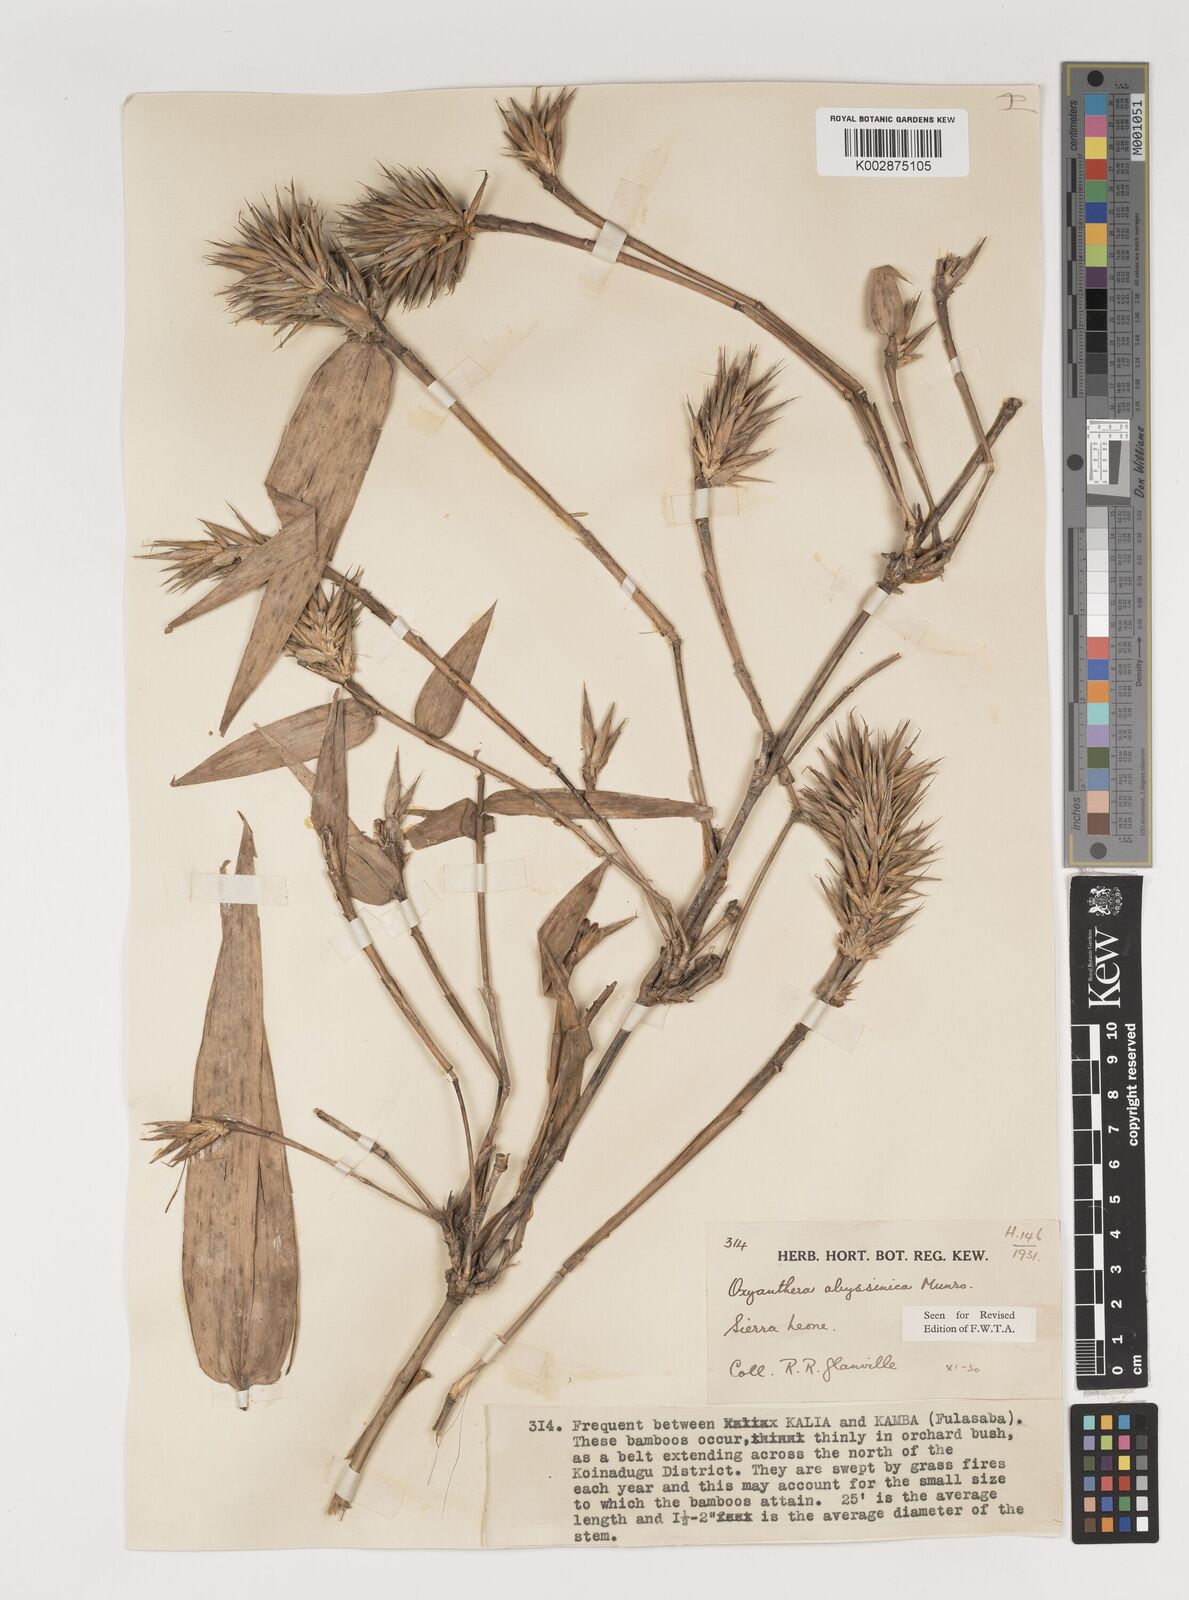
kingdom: Plantae
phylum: Tracheophyta
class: Liliopsida
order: Poales
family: Poaceae
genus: Oxytenanthera
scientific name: Oxytenanthera abyssinica
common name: Wine bamboo
